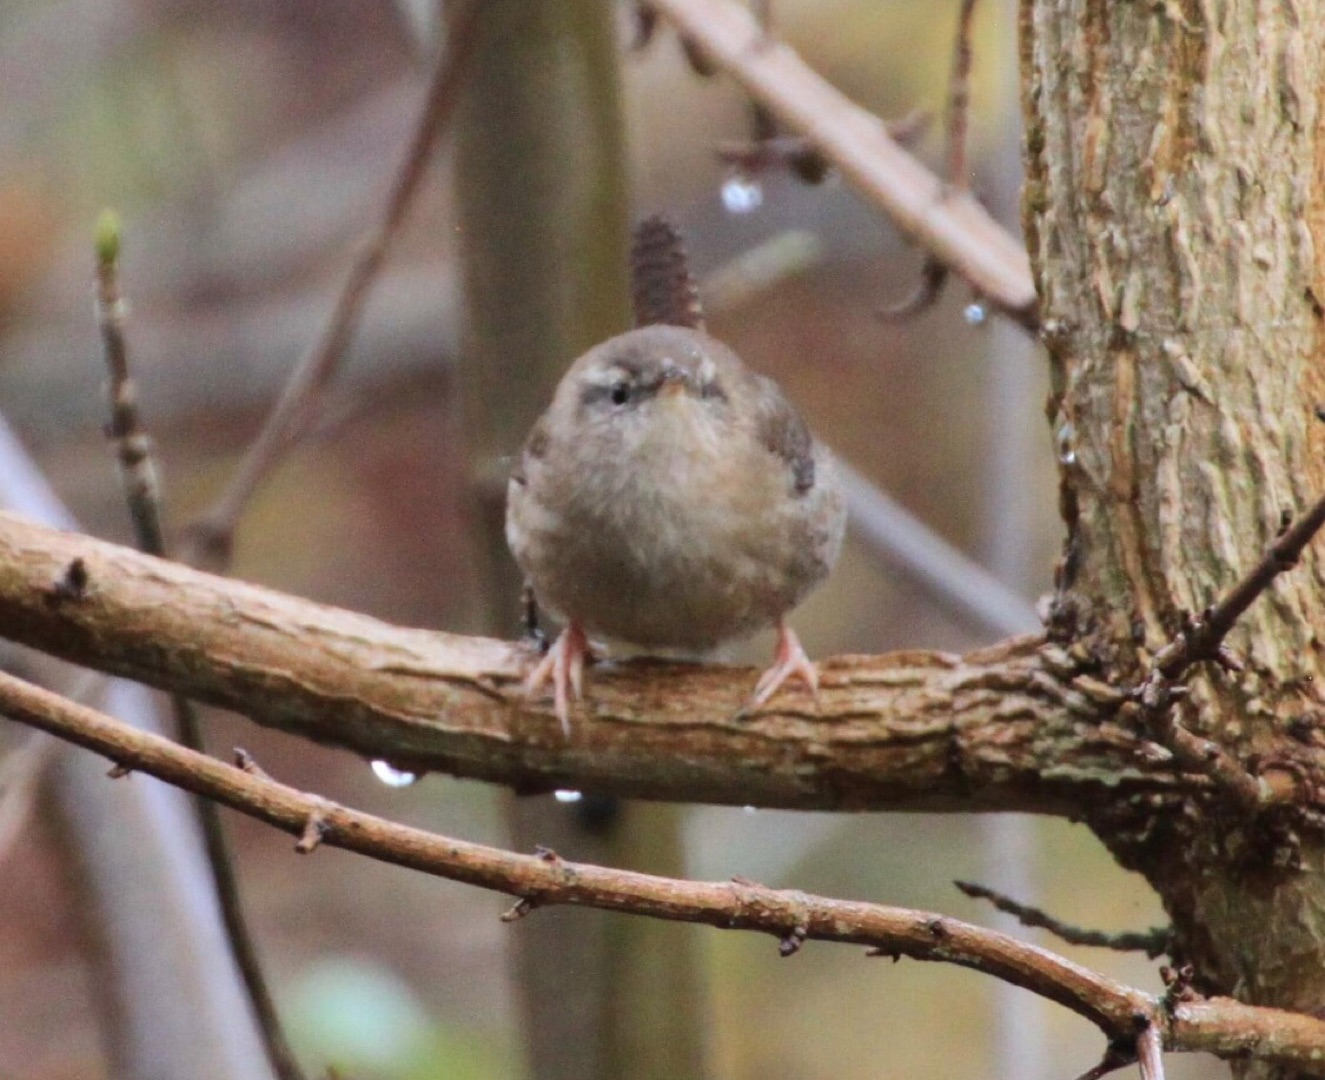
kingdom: Animalia
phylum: Chordata
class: Aves
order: Passeriformes
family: Troglodytidae
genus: Troglodytes
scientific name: Troglodytes troglodytes
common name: Gærdesmutte
